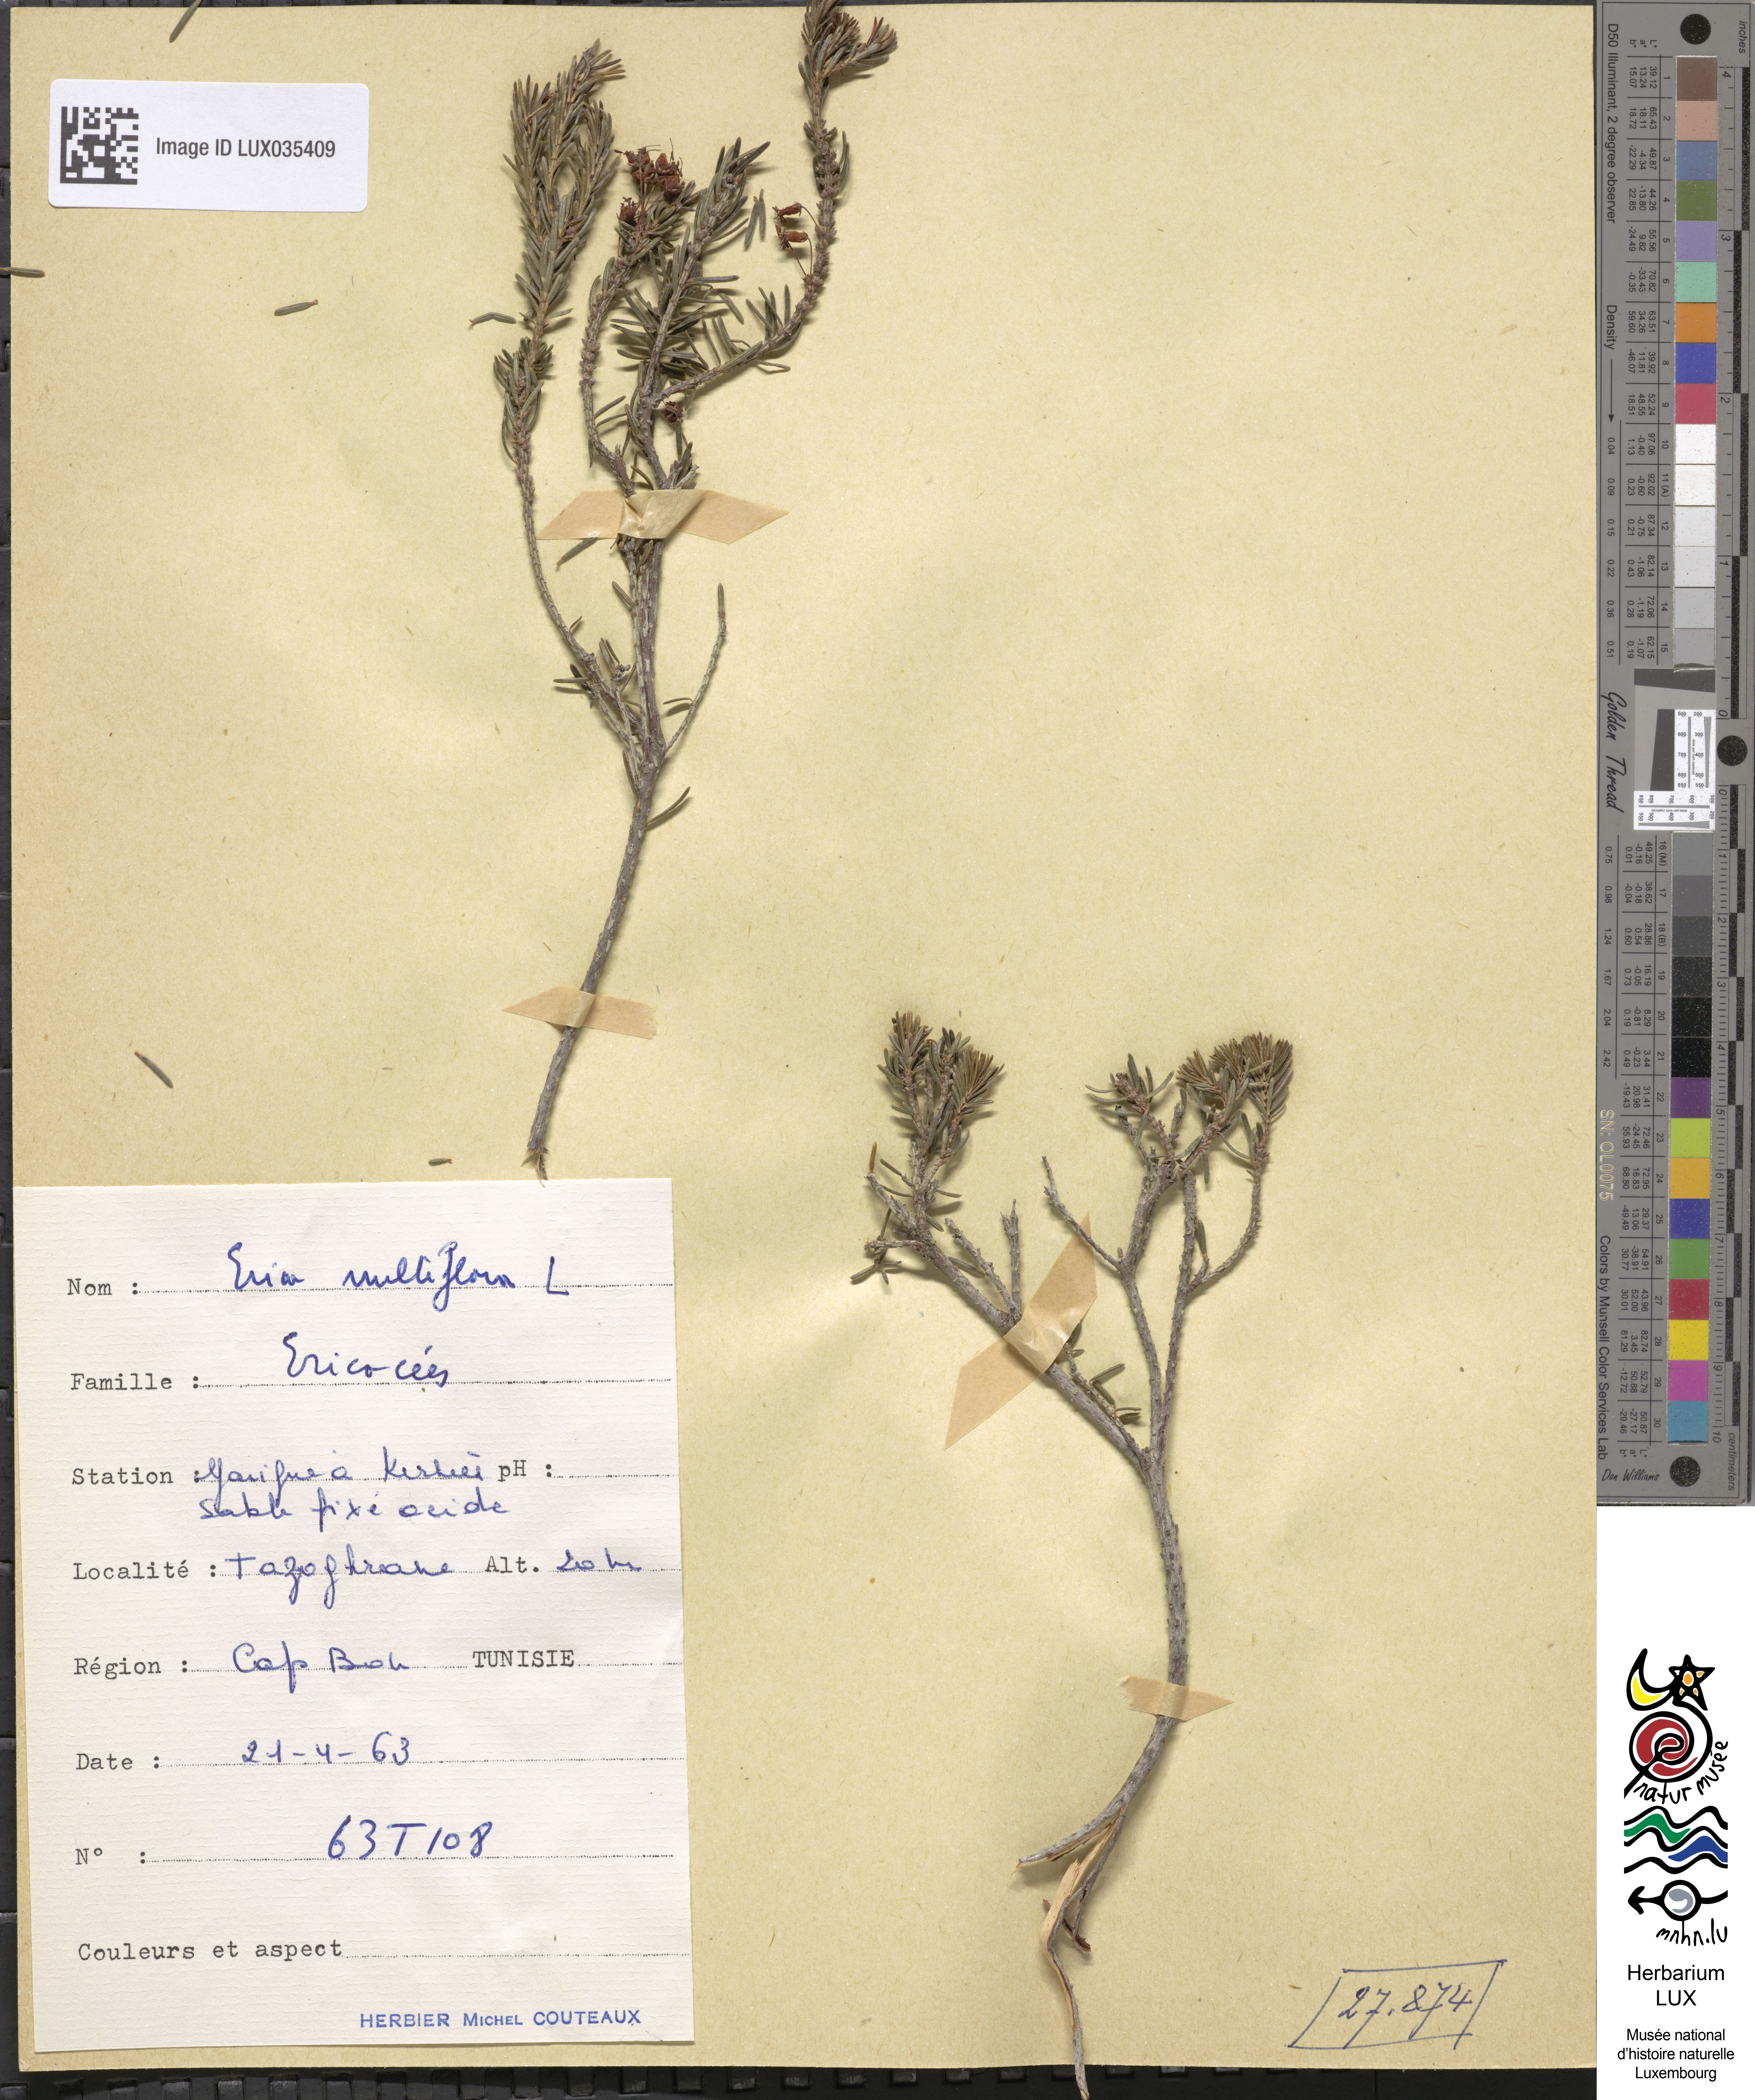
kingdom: Plantae
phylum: Tracheophyta
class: Magnoliopsida
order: Ericales
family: Ericaceae
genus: Erica
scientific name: Erica multiflora
